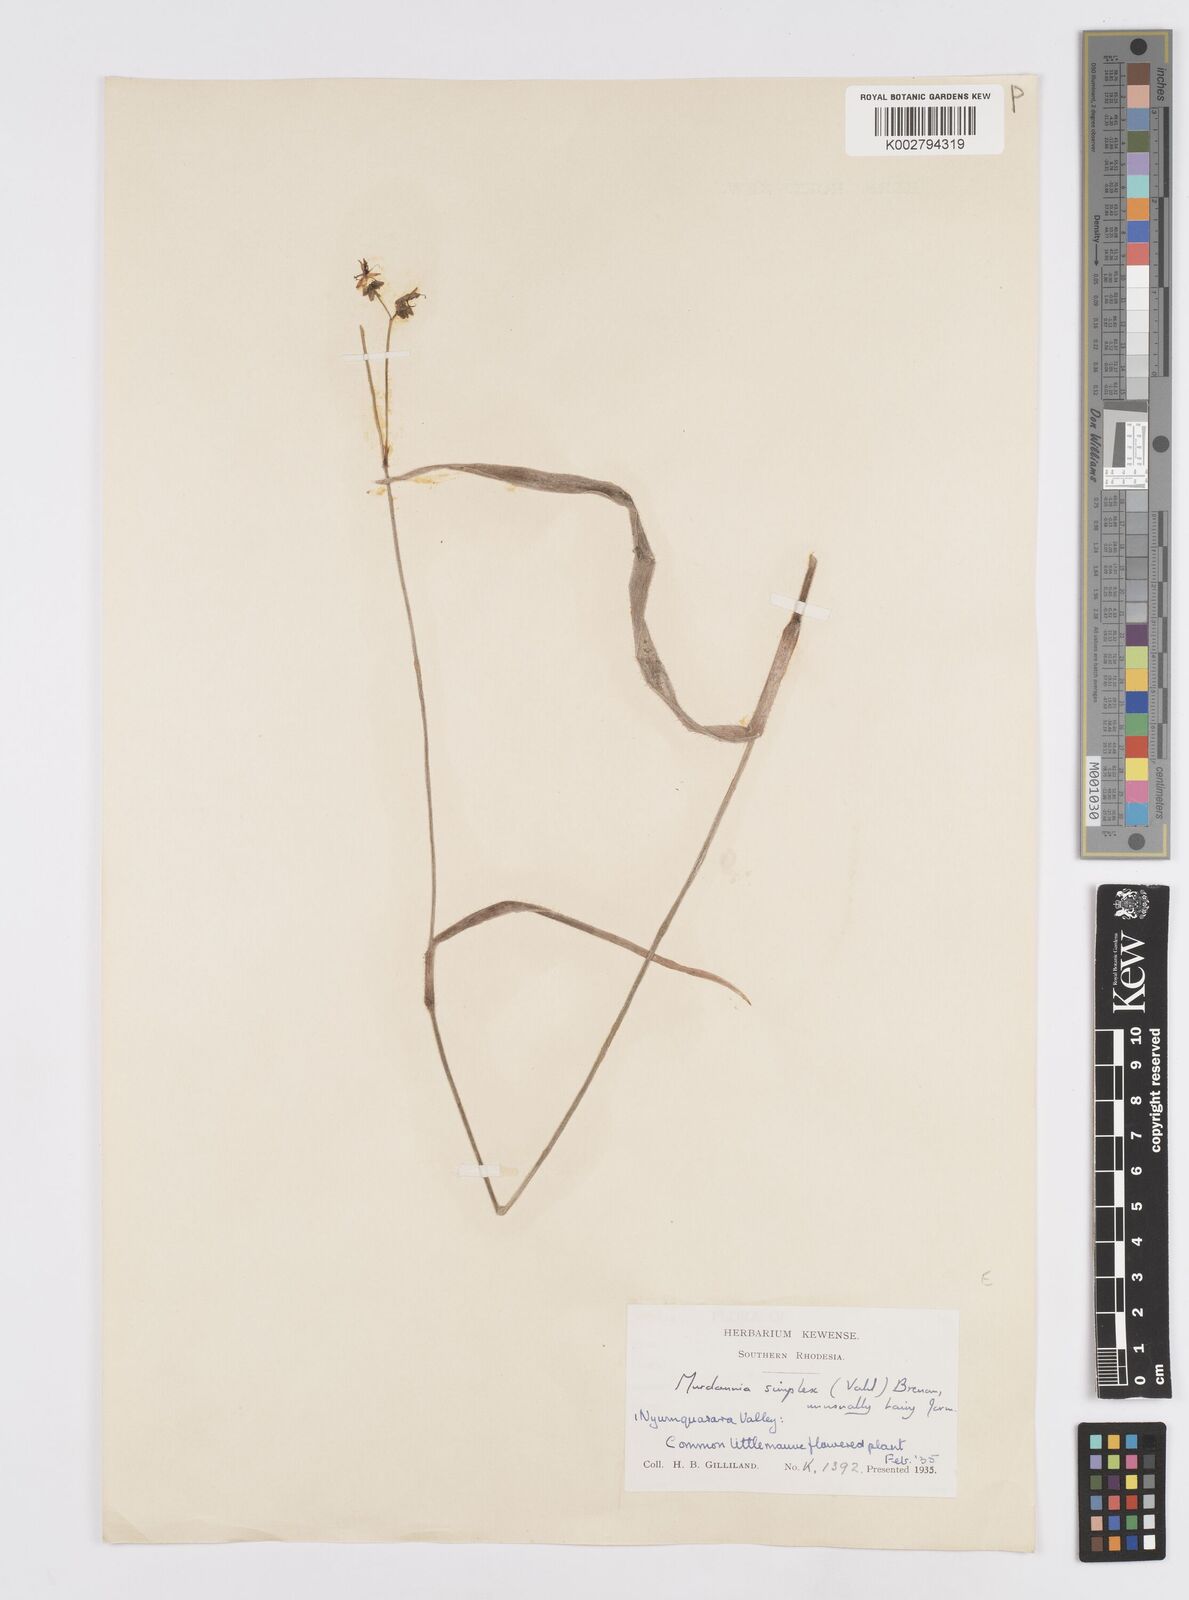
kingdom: Plantae
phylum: Tracheophyta
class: Liliopsida
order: Commelinales
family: Commelinaceae
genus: Murdannia
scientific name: Murdannia simplex
